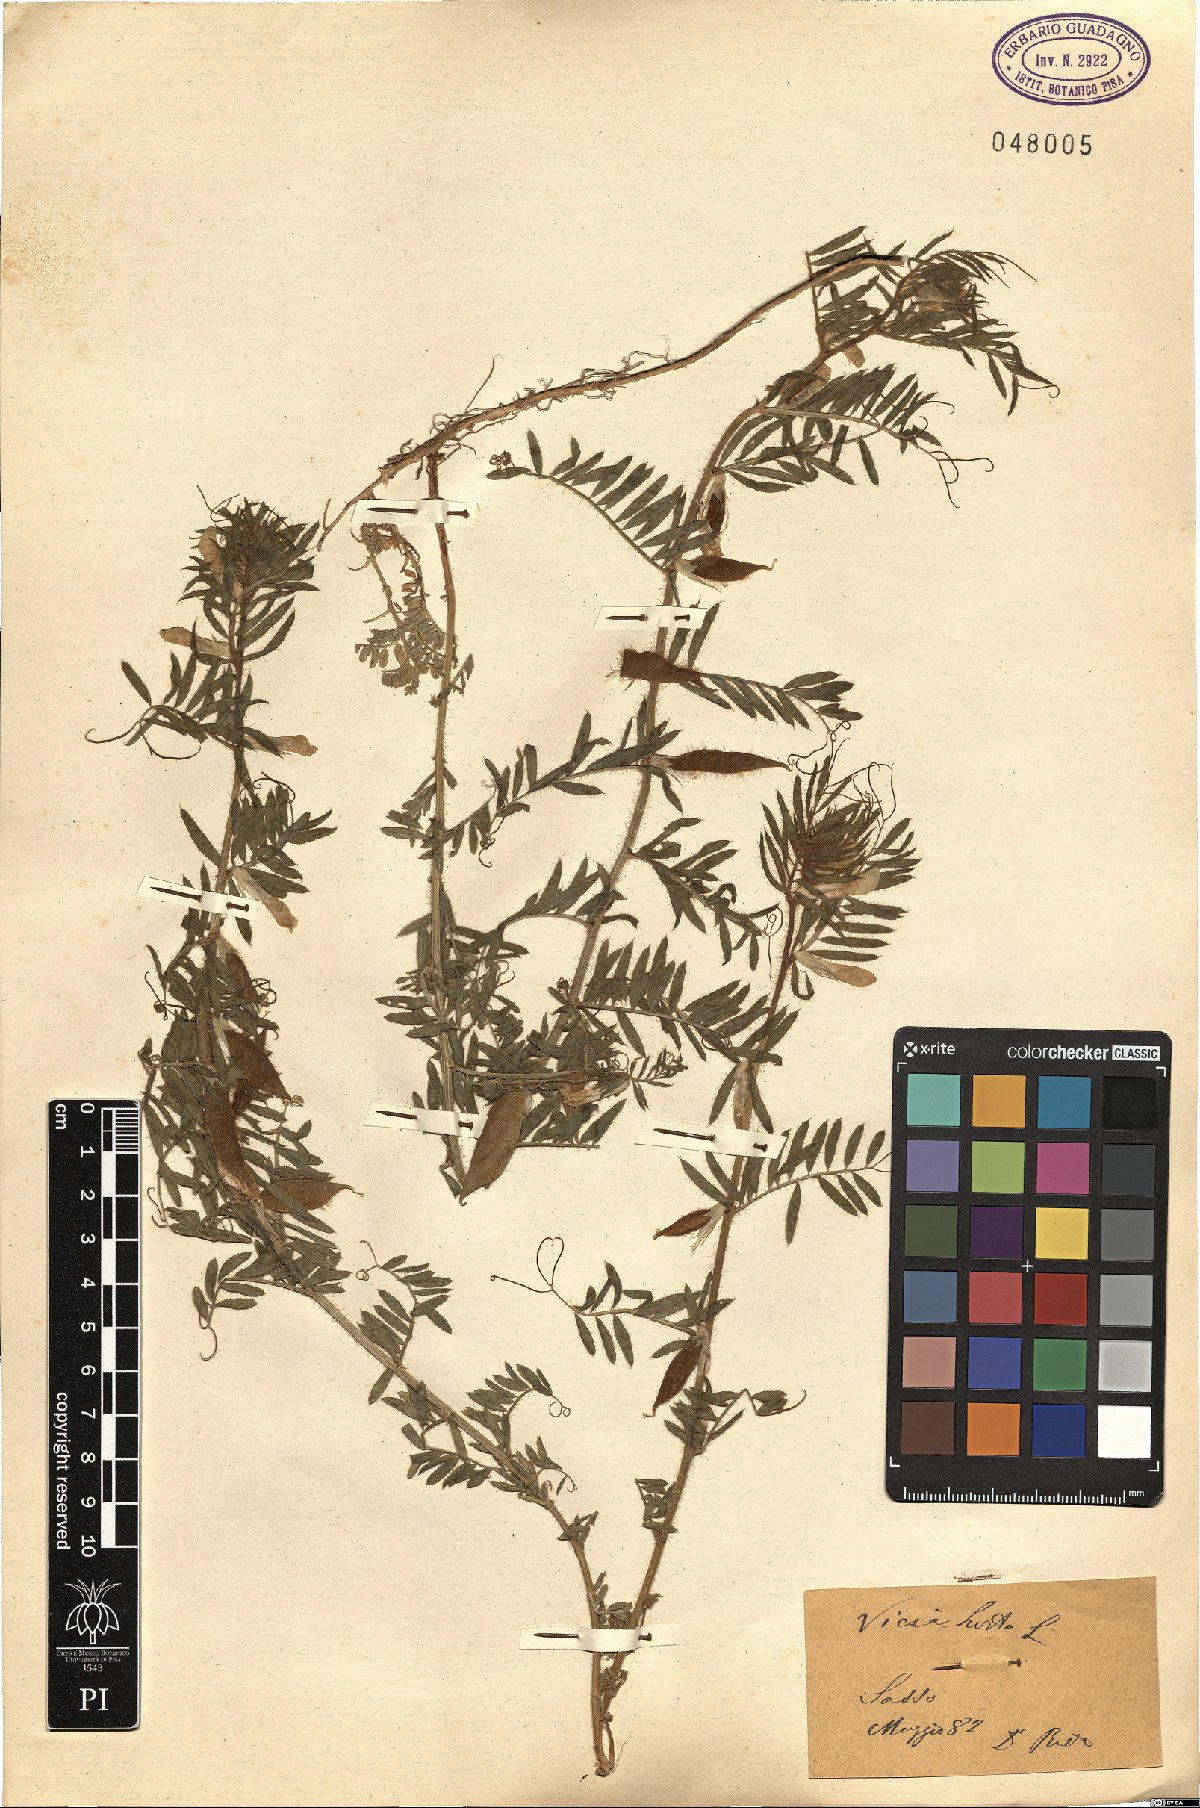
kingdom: Plantae
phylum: Tracheophyta
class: Magnoliopsida
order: Fabales
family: Fabaceae
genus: Vicia
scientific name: Vicia lutea
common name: Smooth yellow vetch
